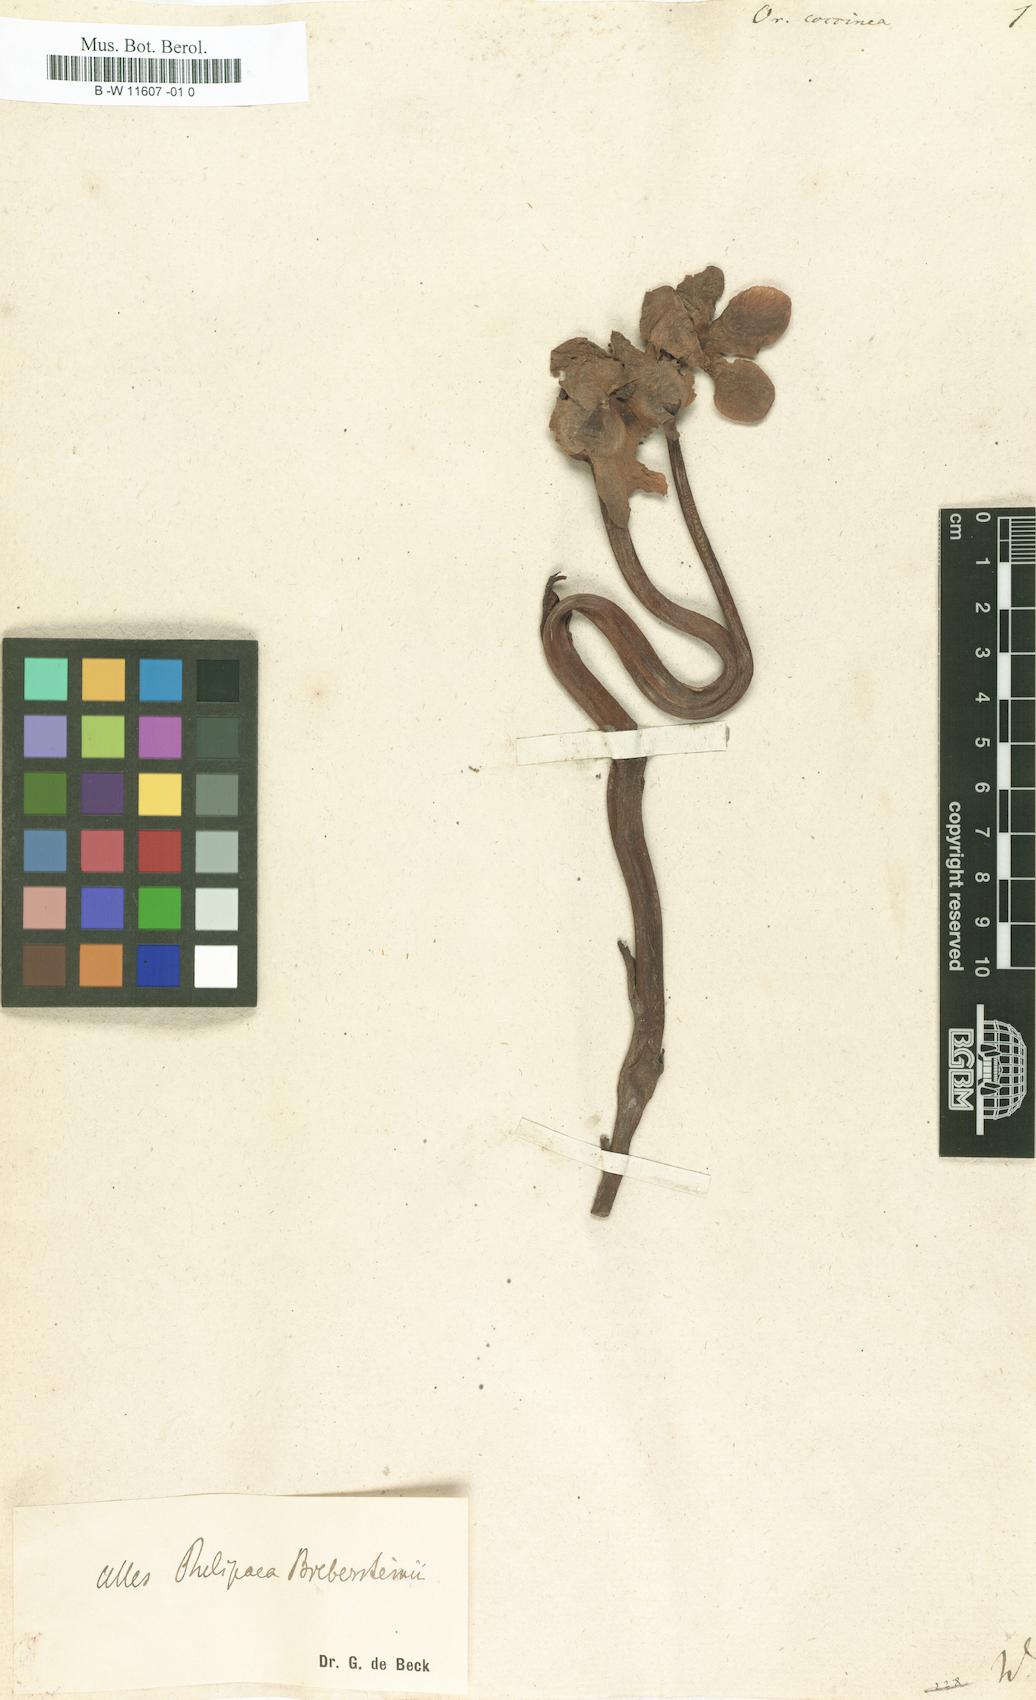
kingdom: Plantae
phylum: Tracheophyta
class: Magnoliopsida
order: Lamiales
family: Orobanchaceae
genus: Diphelypaea
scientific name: Diphelypaea coccinea
